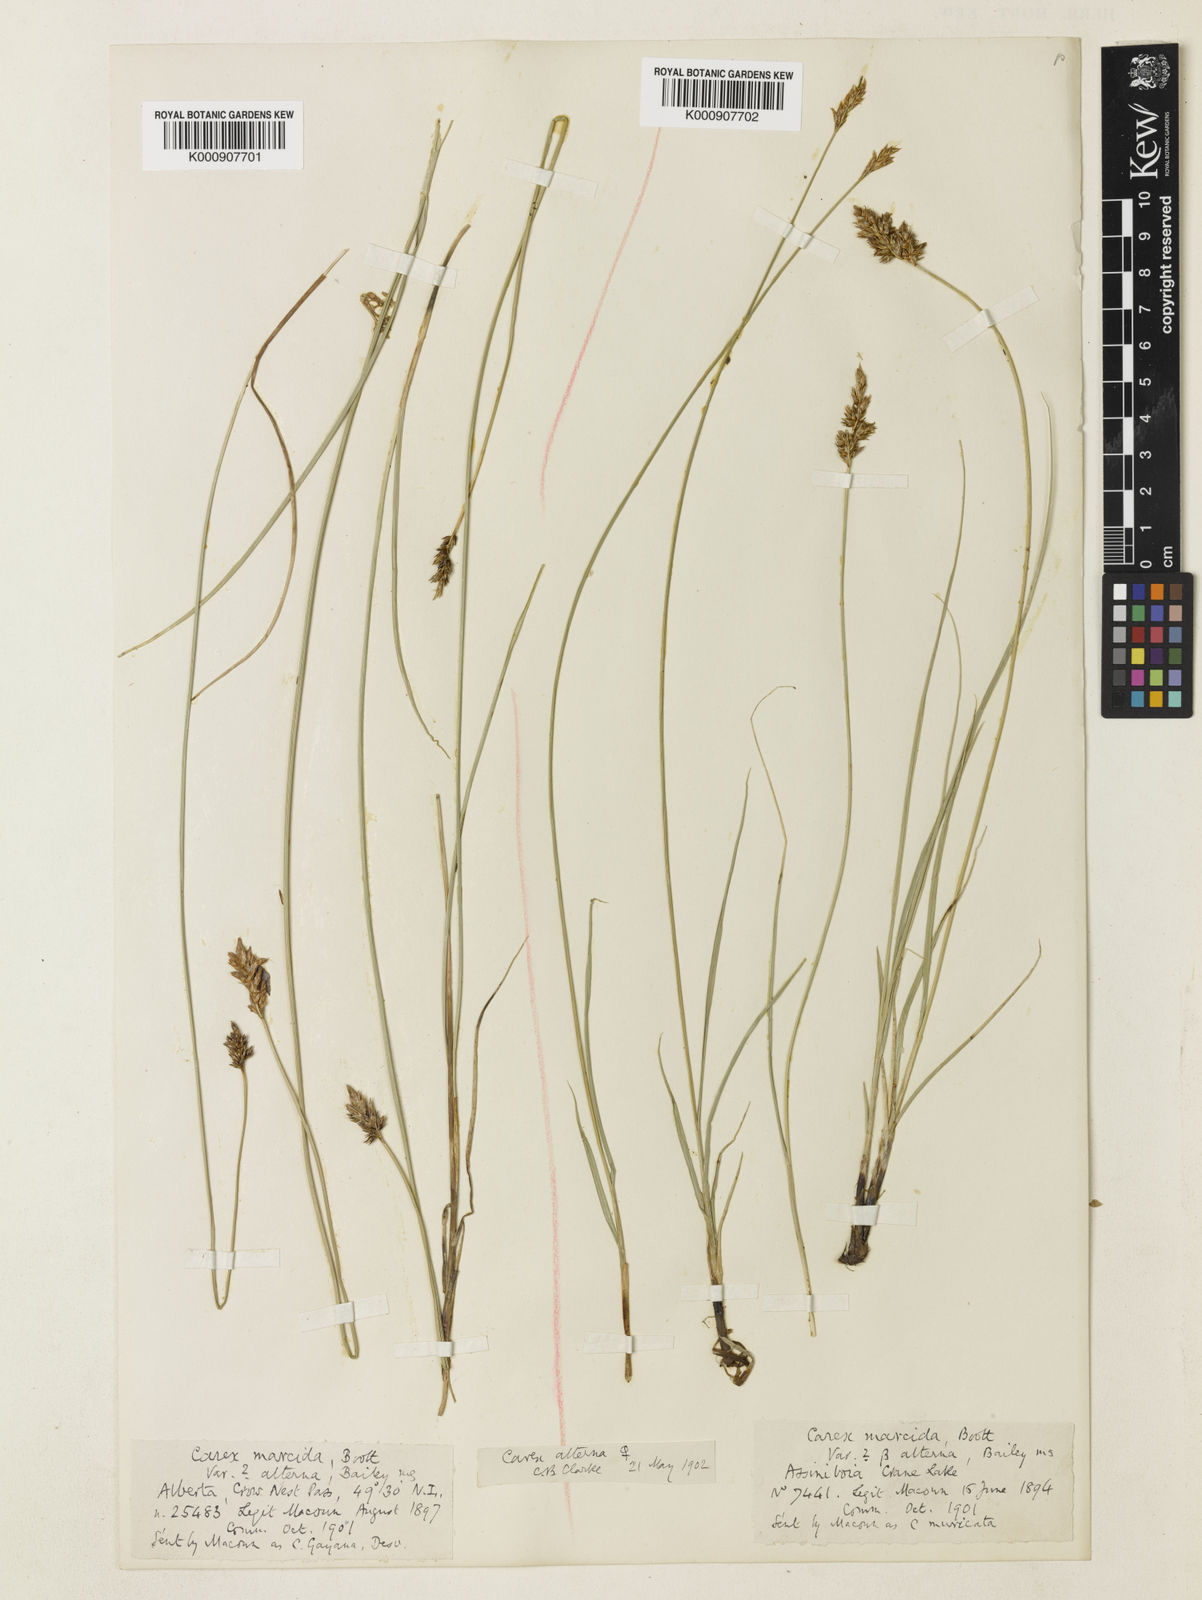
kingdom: Plantae
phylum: Tracheophyta
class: Liliopsida
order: Poales
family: Cyperaceae
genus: Carex
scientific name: Carex praegracilis
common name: Black creeper sedge
